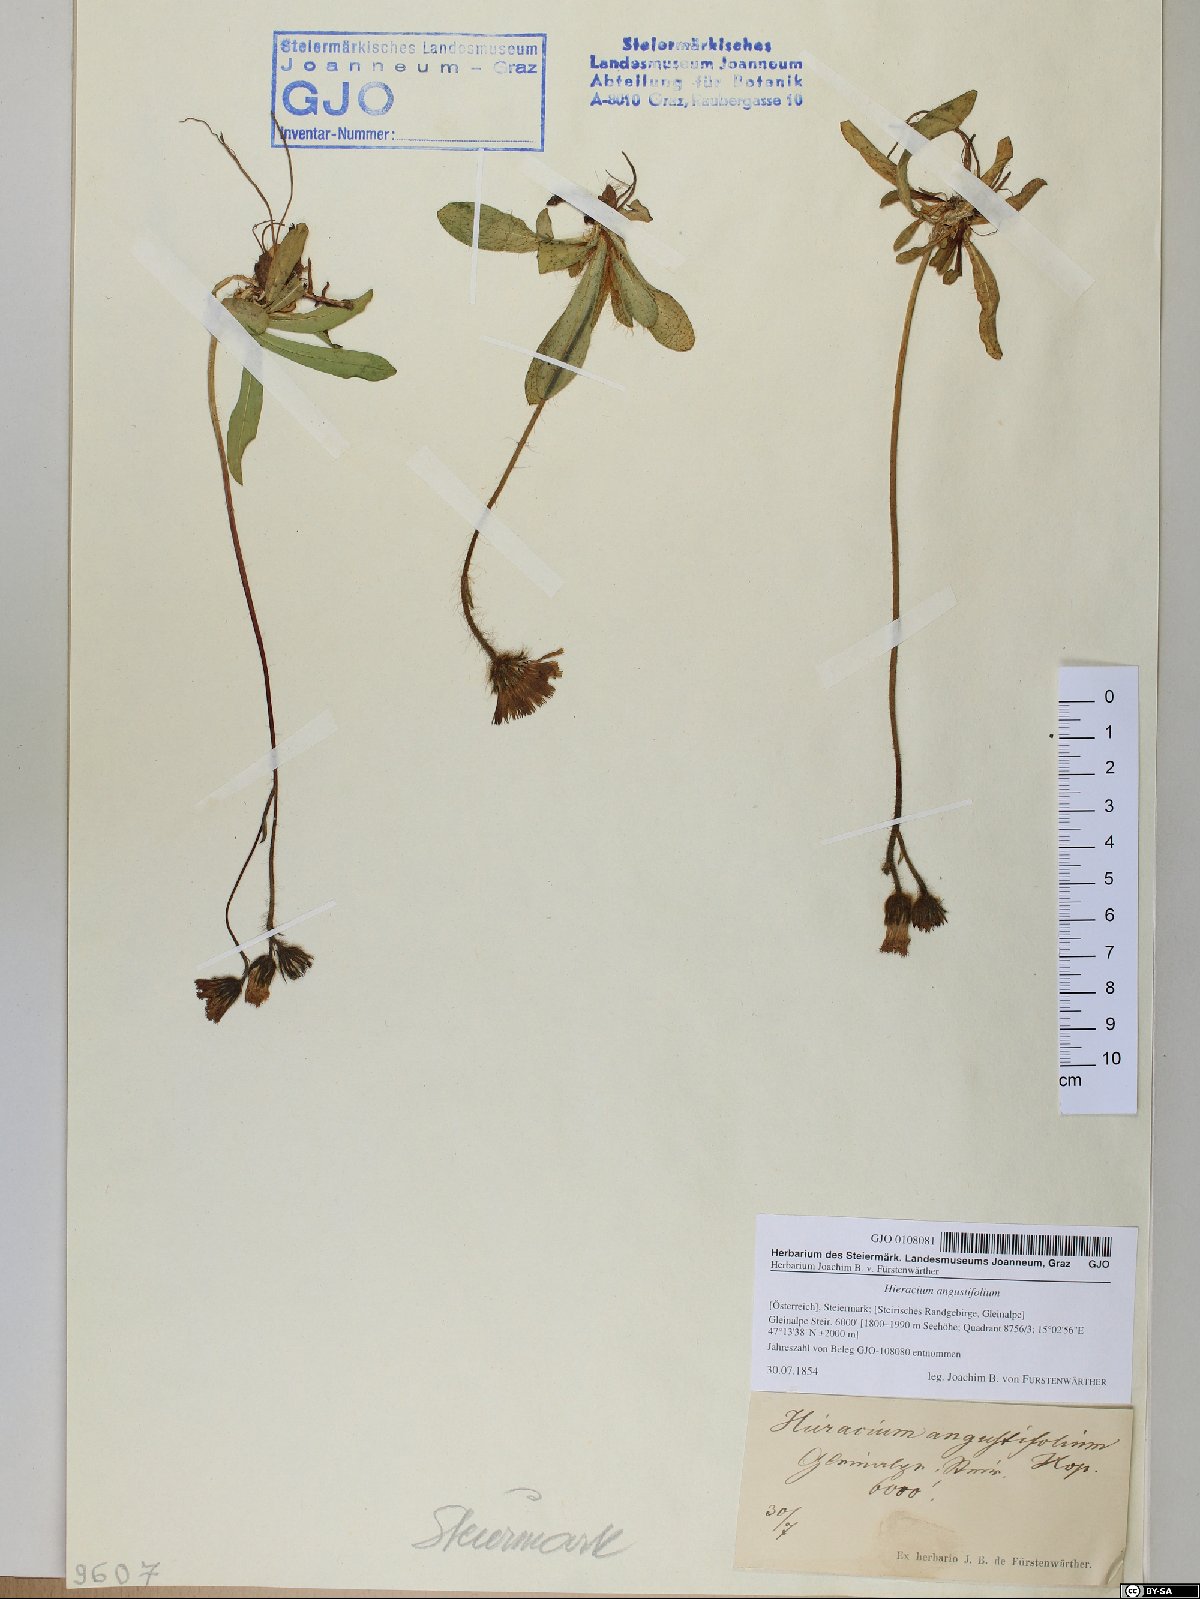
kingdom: Plantae
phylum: Tracheophyta
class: Magnoliopsida
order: Asterales
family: Asteraceae
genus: Pilosella
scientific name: Pilosella glacialis
